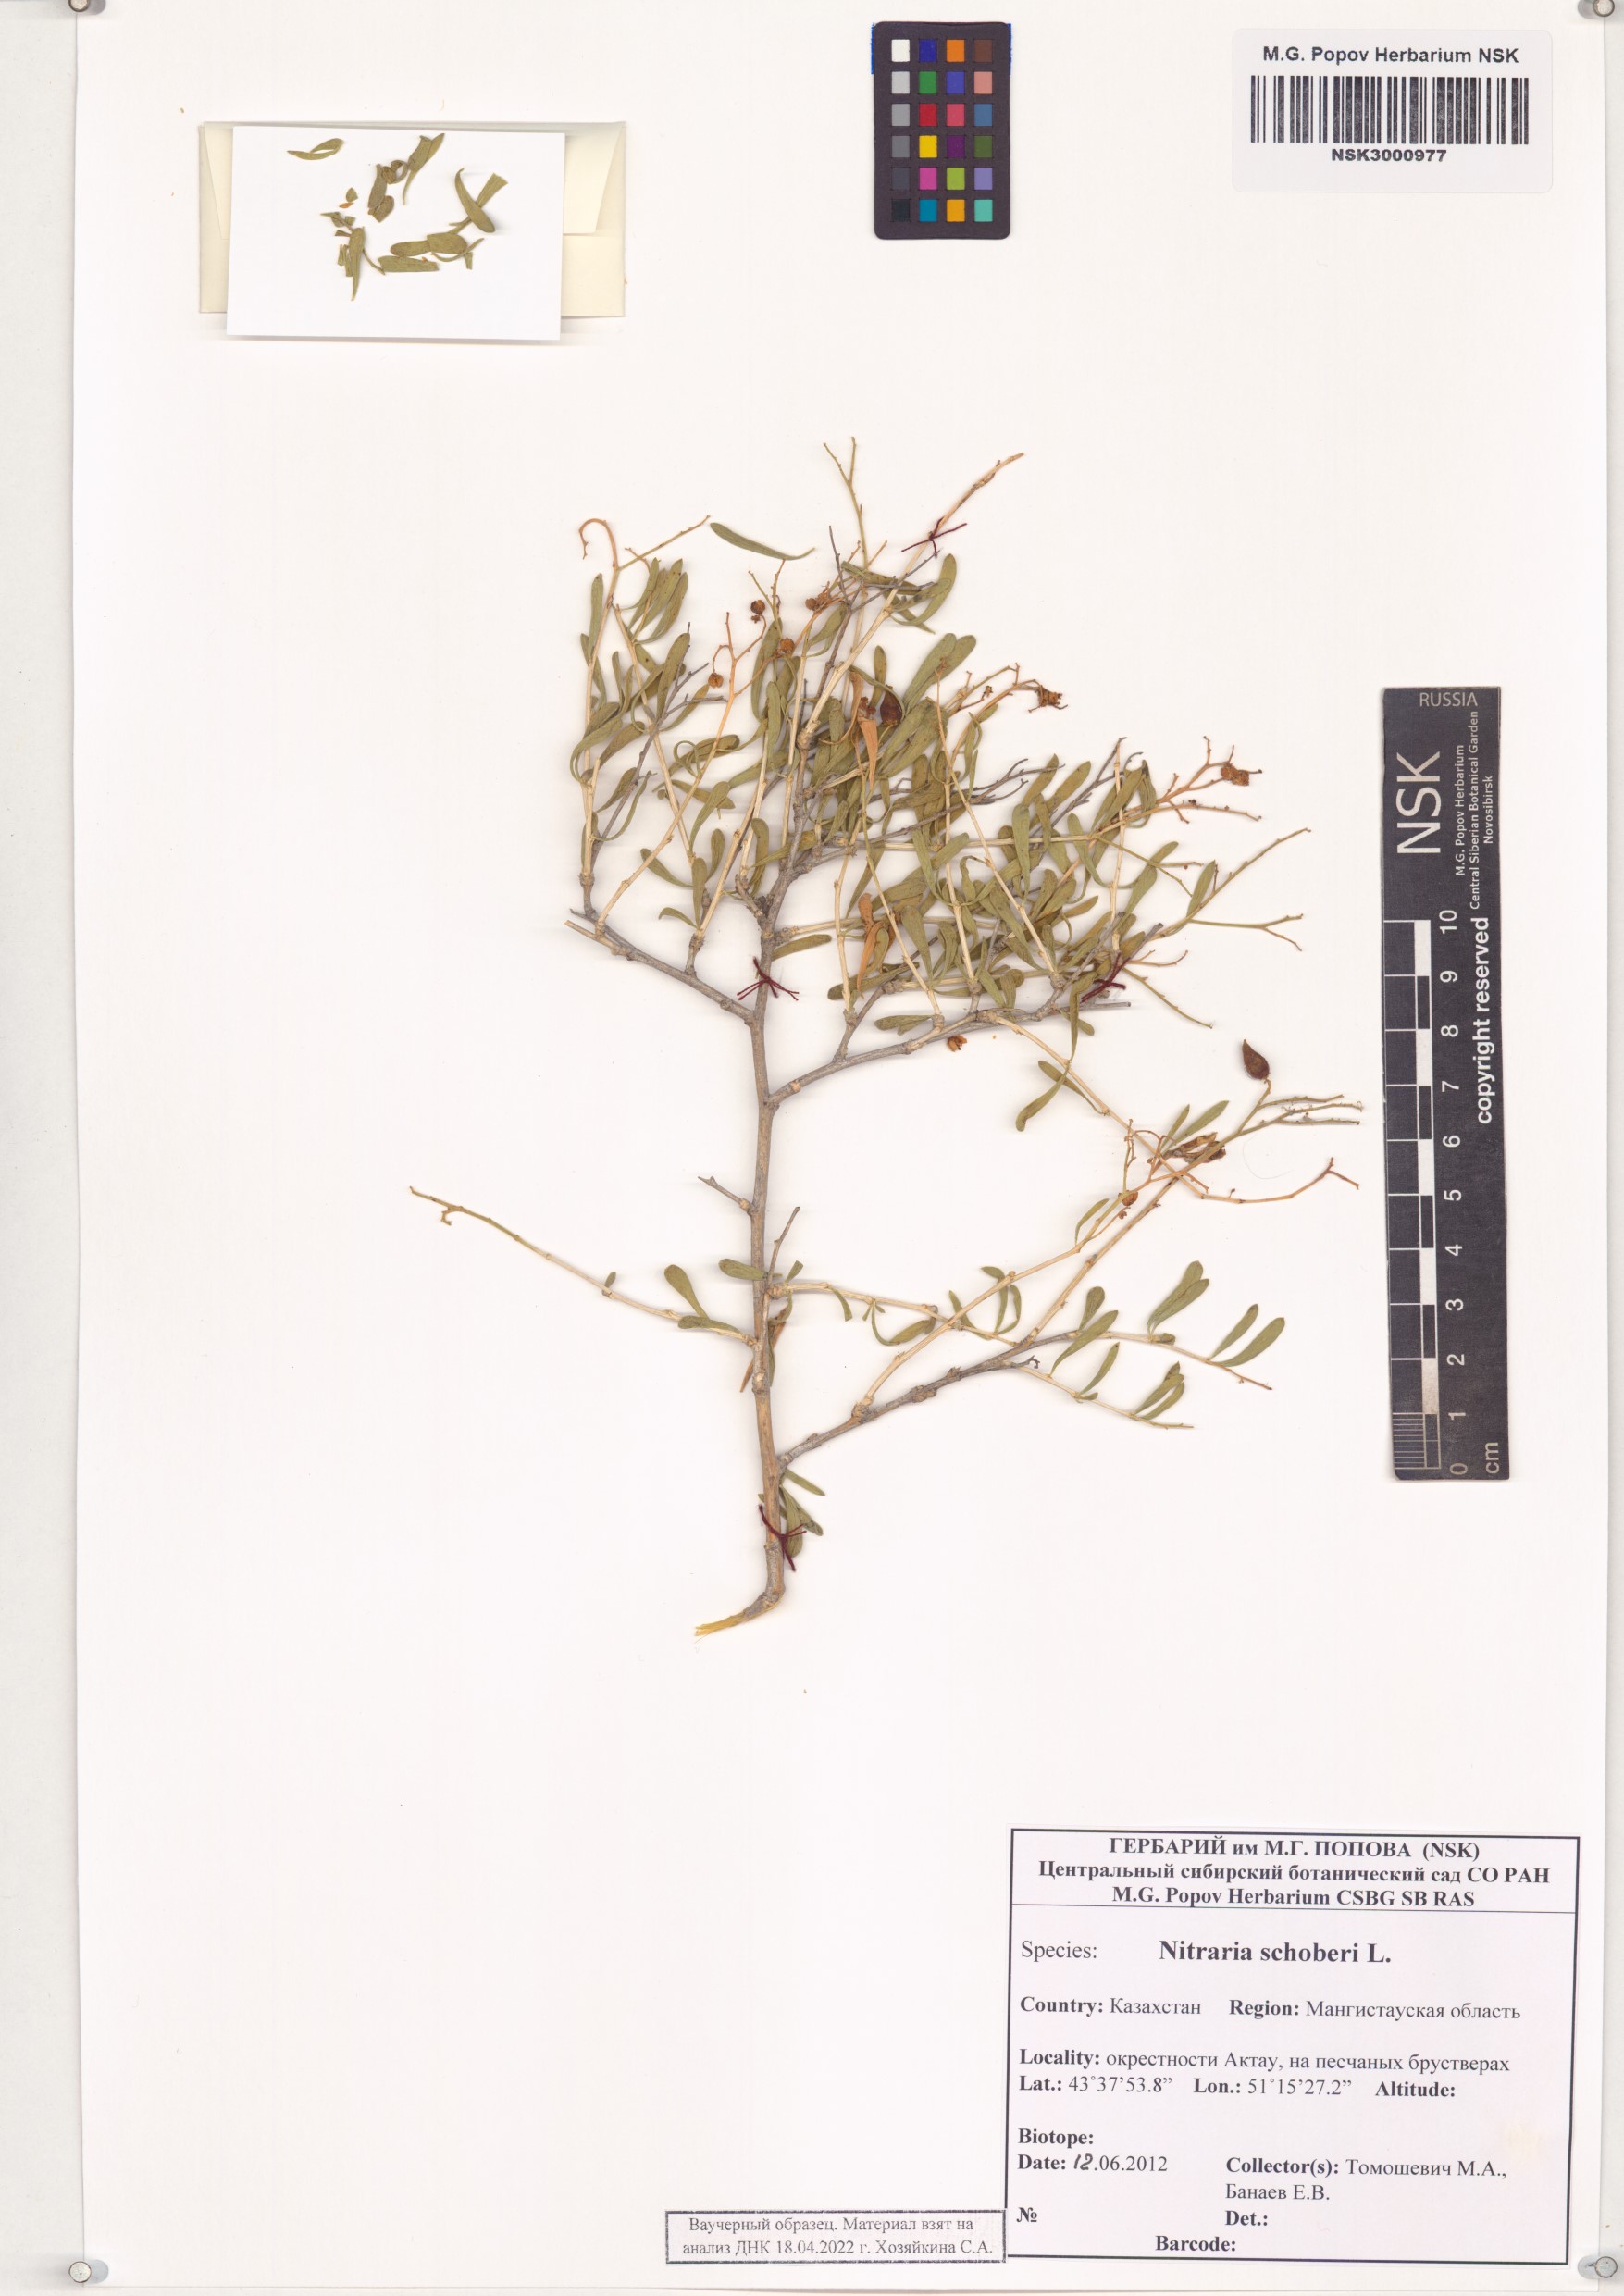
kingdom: Plantae
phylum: Tracheophyta
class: Magnoliopsida
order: Sapindales
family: Nitrariaceae
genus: Nitraria
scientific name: Nitraria schoberi
